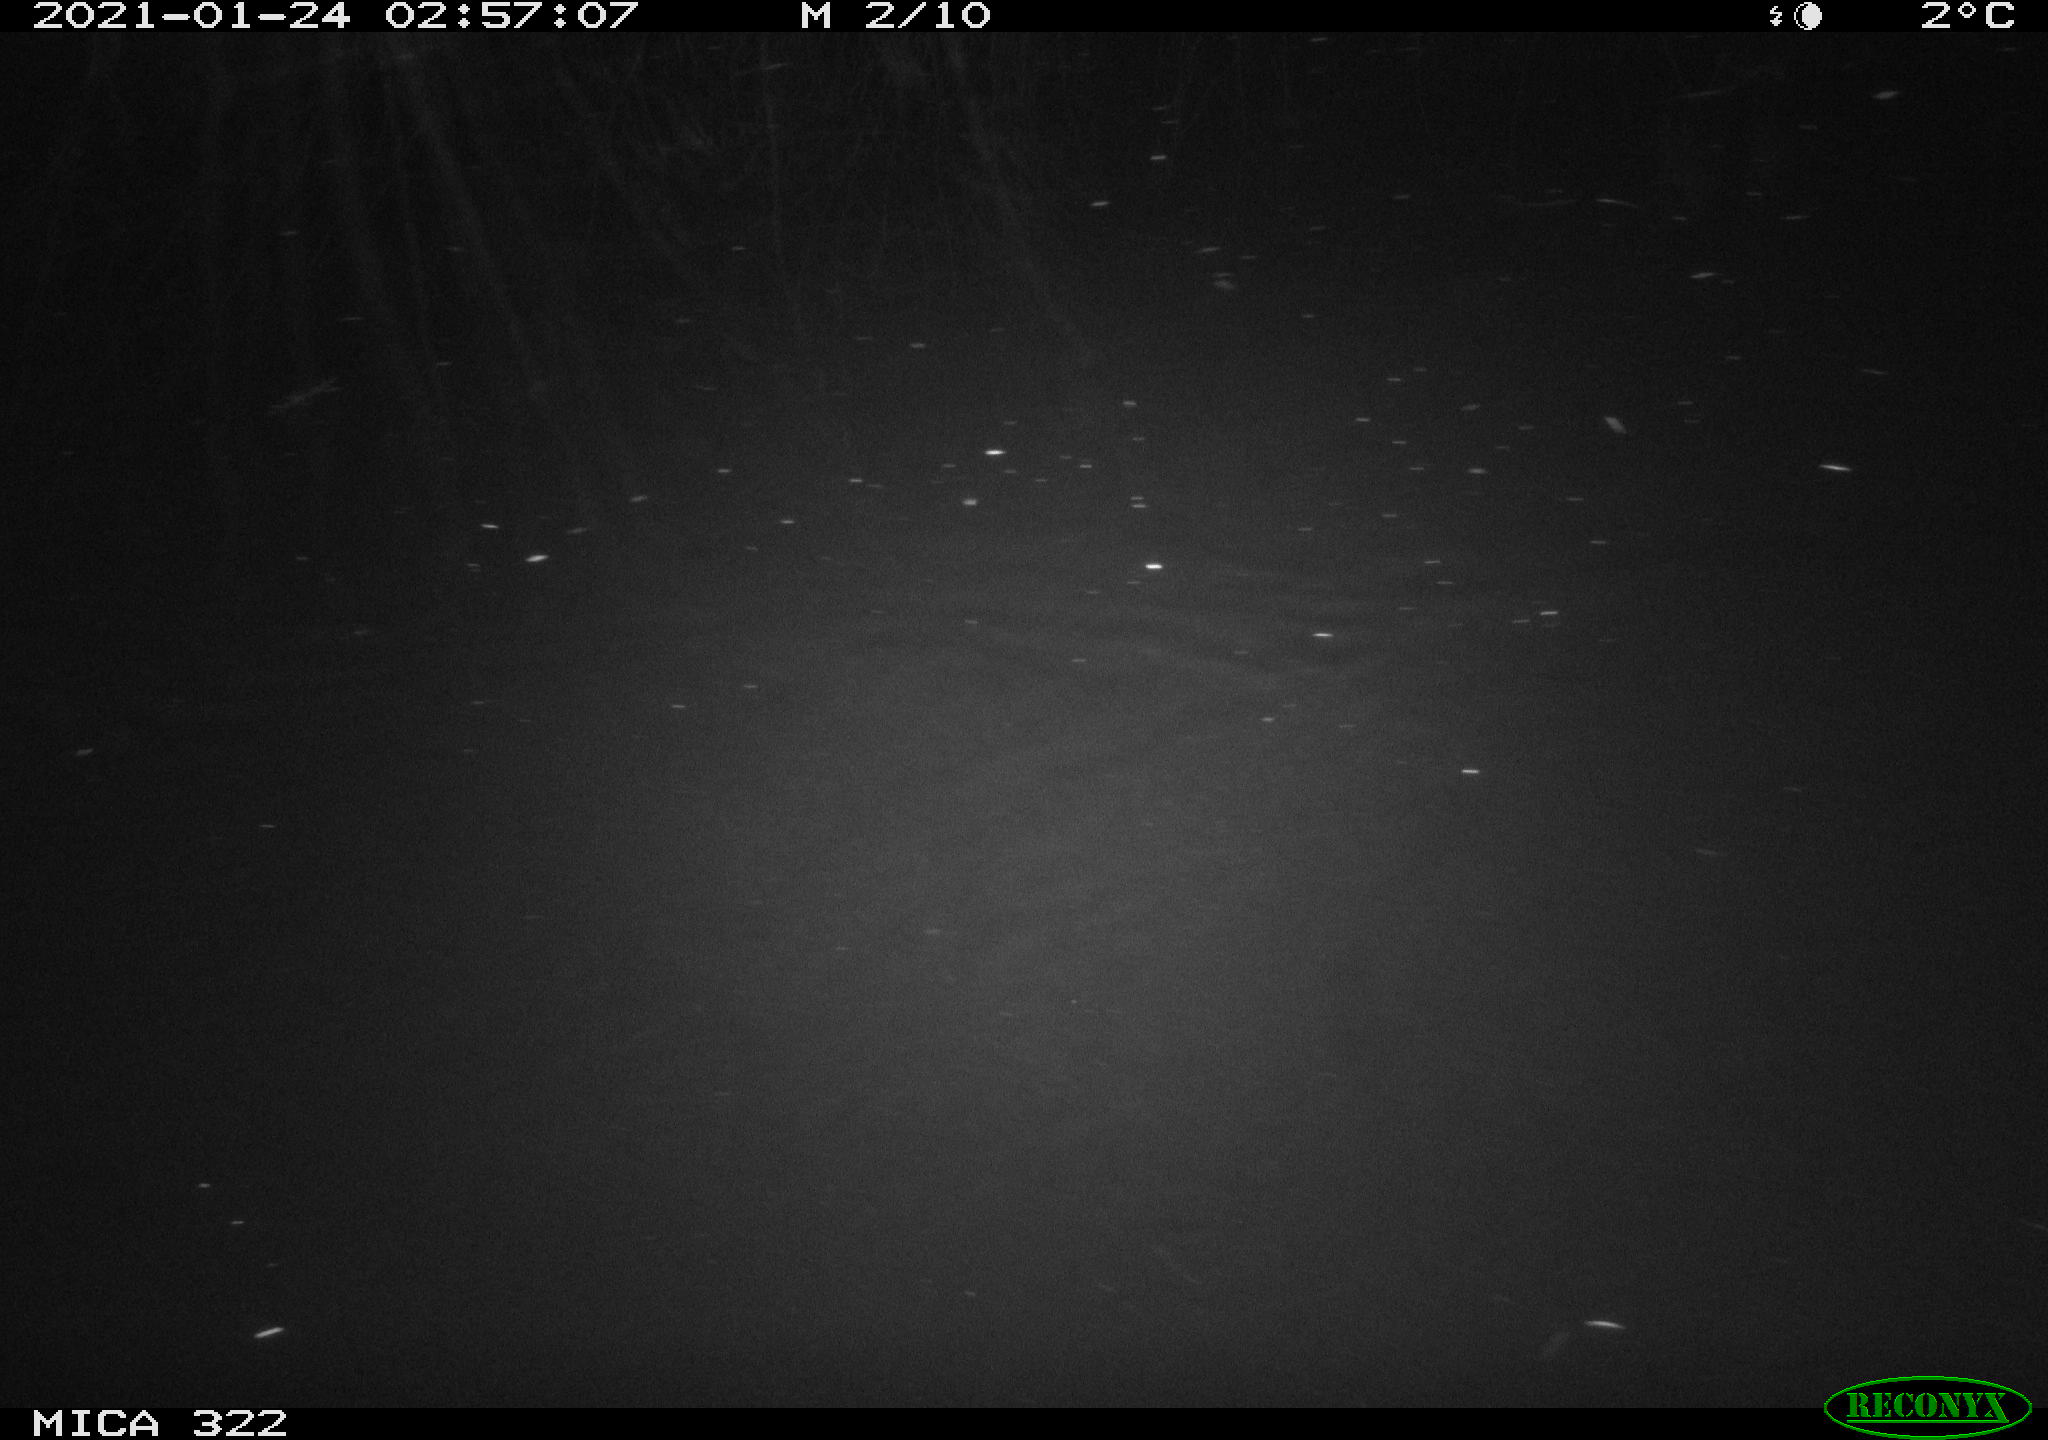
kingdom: Animalia
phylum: Chordata
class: Mammalia
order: Rodentia
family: Muridae
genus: Rattus
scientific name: Rattus norvegicus
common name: Brown rat
